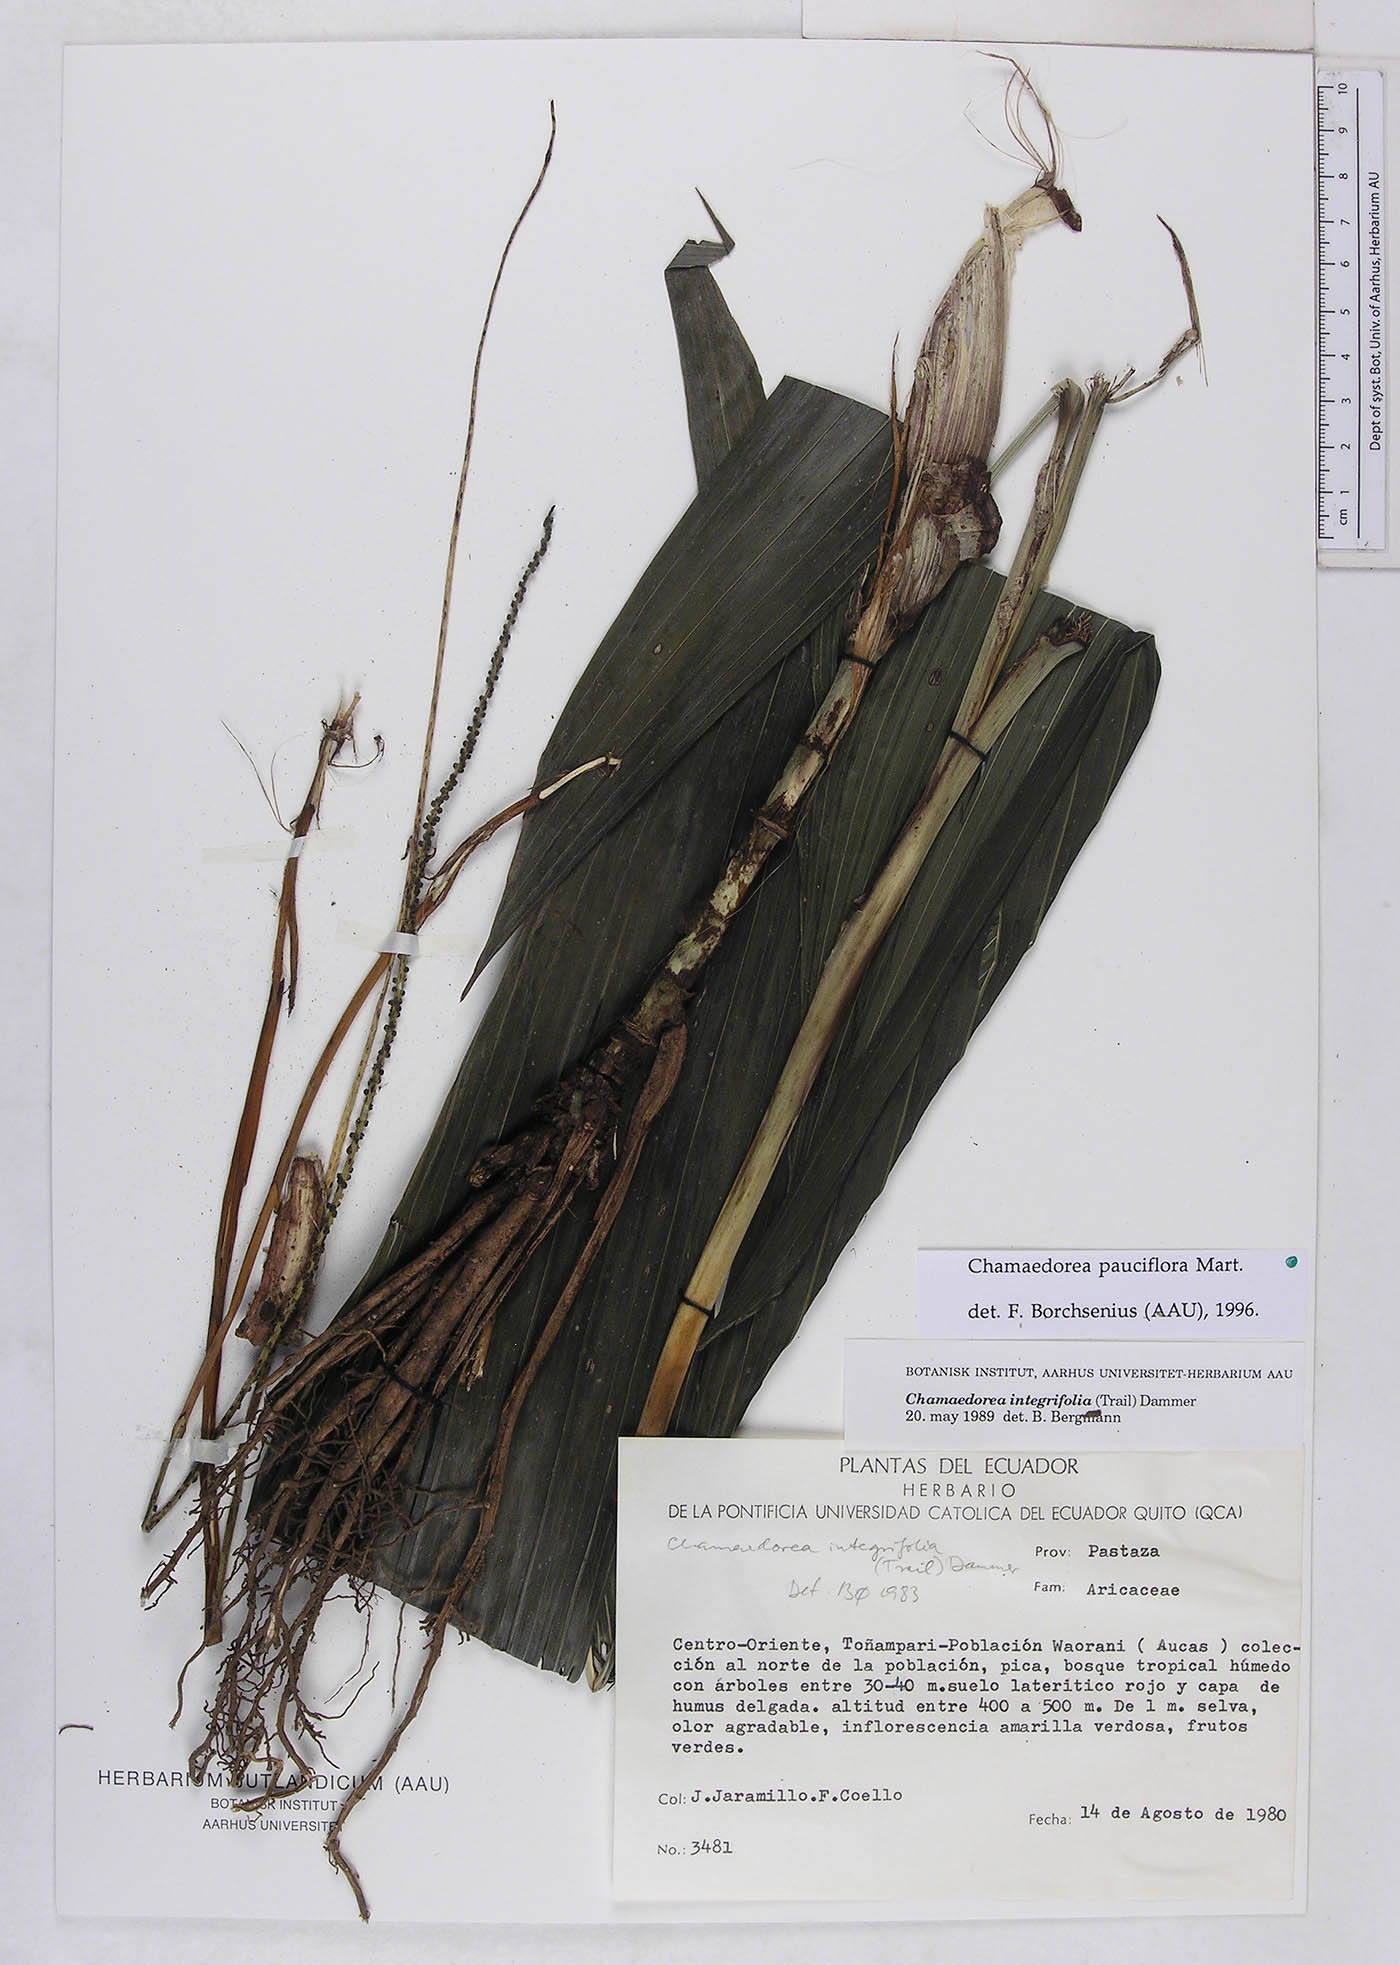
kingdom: Plantae
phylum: Tracheophyta
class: Liliopsida
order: Arecales
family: Arecaceae
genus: Chamaedorea
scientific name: Chamaedorea pauciflora
